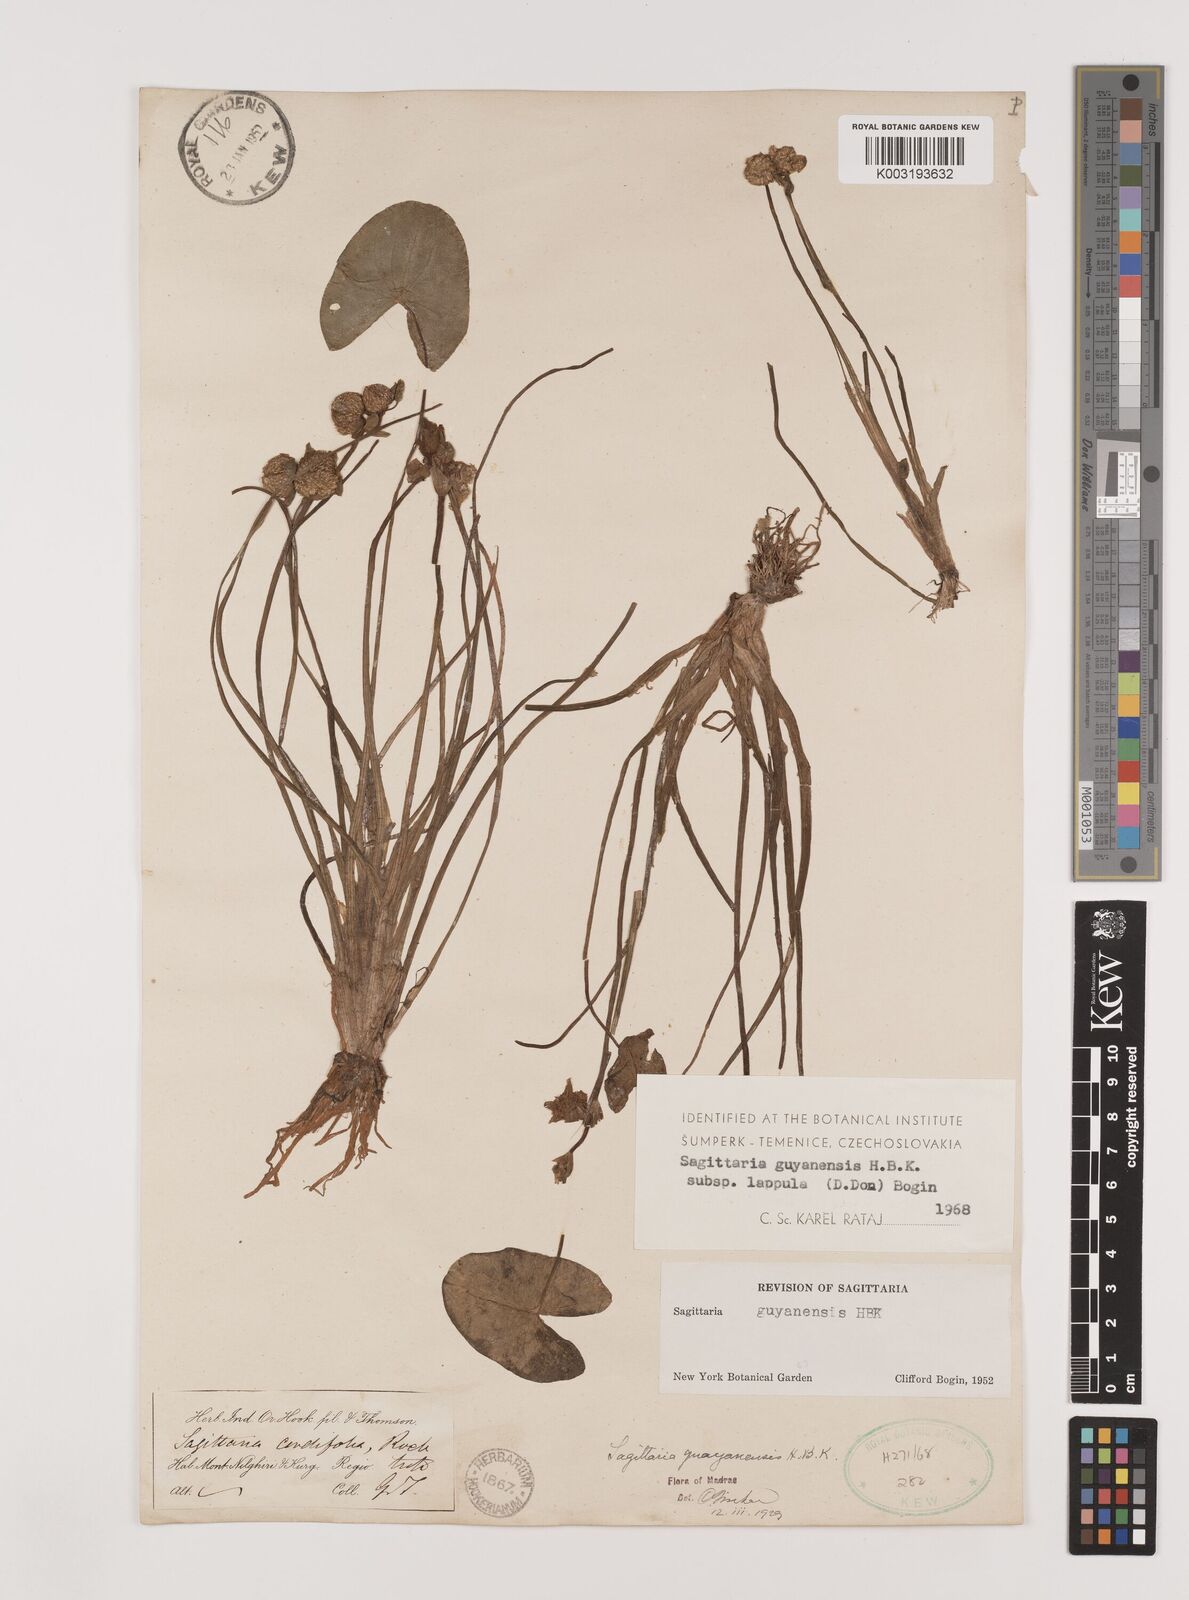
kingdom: Plantae
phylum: Tracheophyta
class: Liliopsida
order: Alismatales
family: Alismataceae
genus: Sagittaria
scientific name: Sagittaria guayanensis
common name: Guyanese arrowhead
